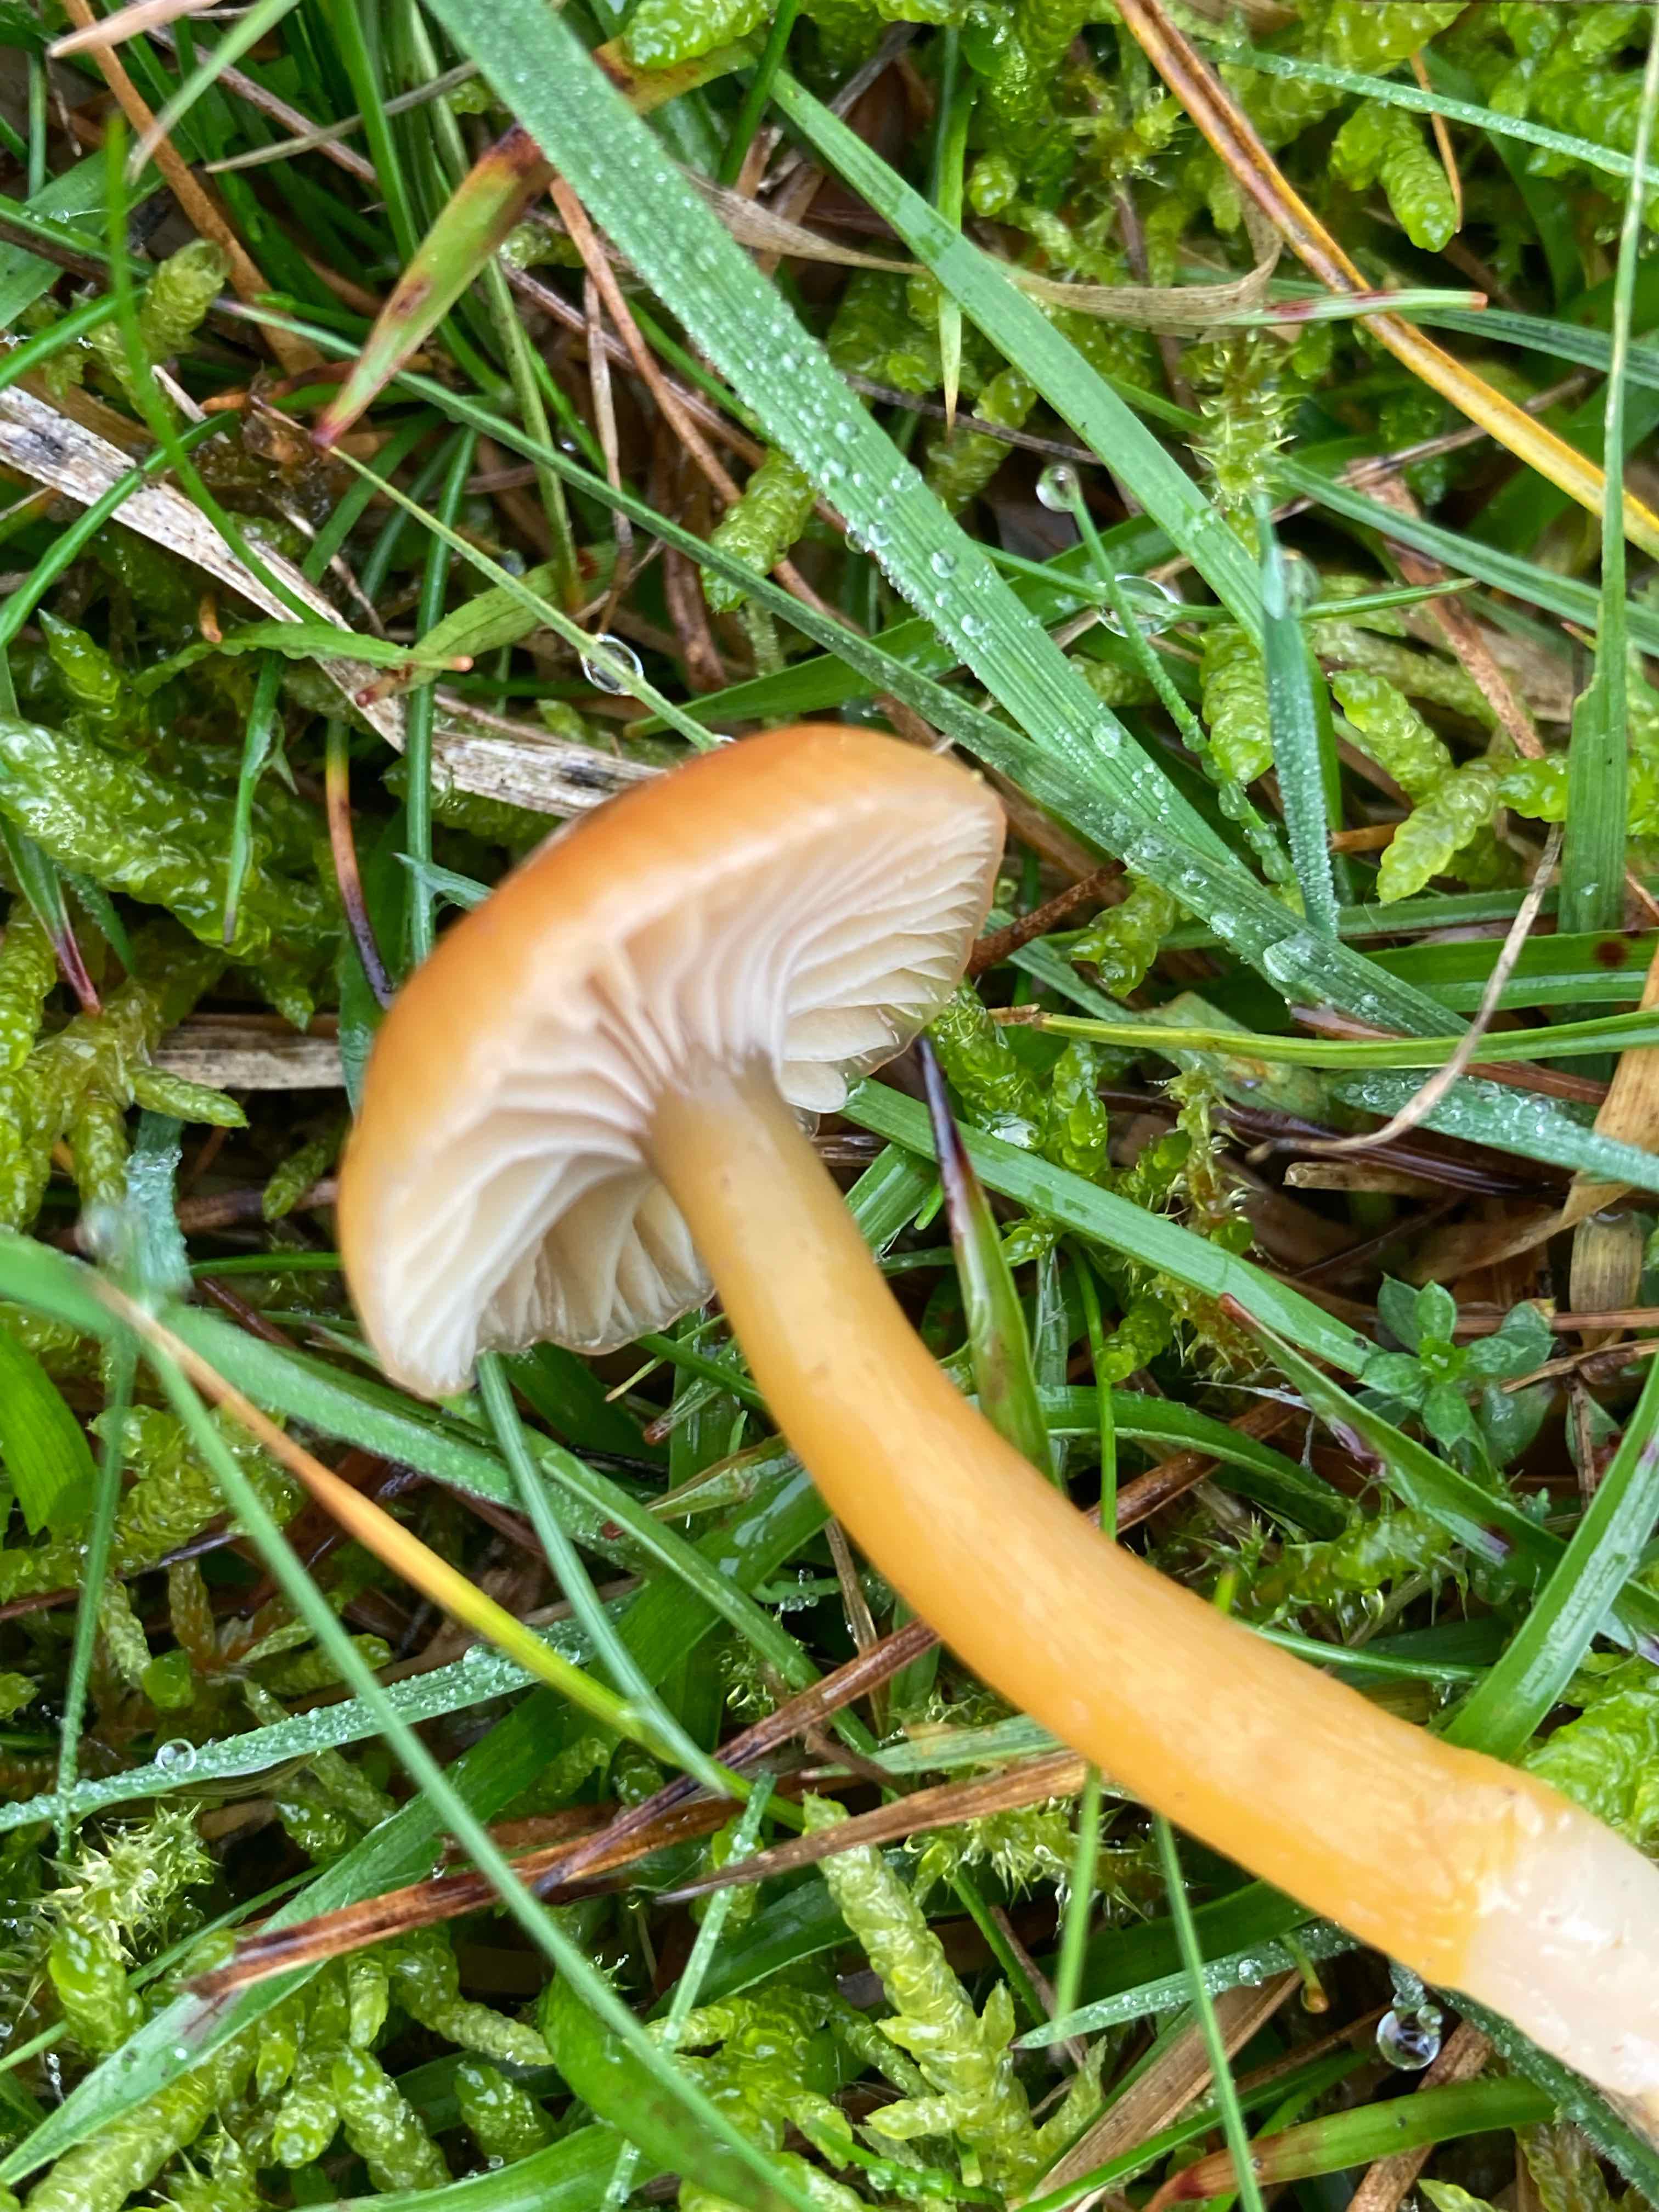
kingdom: Fungi
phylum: Basidiomycota
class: Agaricomycetes
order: Agaricales
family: Hygrophoraceae
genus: Gliophorus
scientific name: Gliophorus laetus
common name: brusk-vokshat
